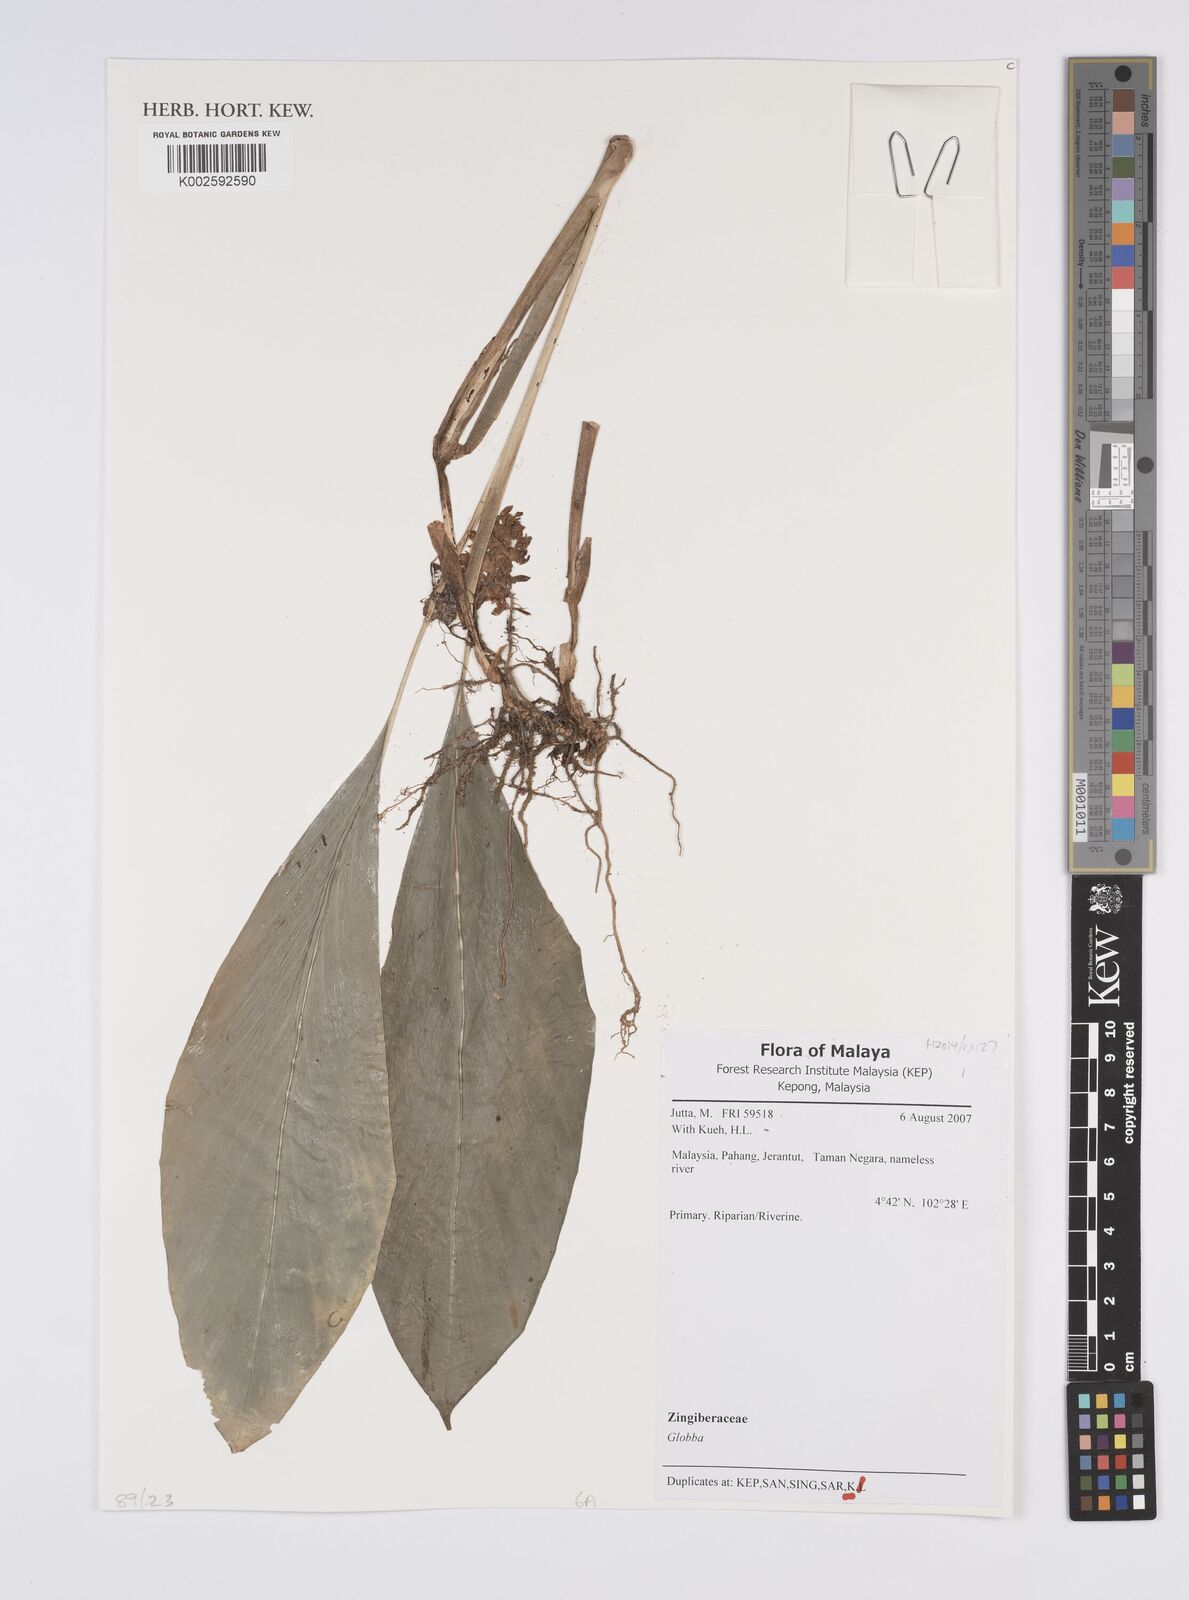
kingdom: Plantae
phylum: Tracheophyta
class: Liliopsida
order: Zingiberales
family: Zingiberaceae
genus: Globba
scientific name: Globba
